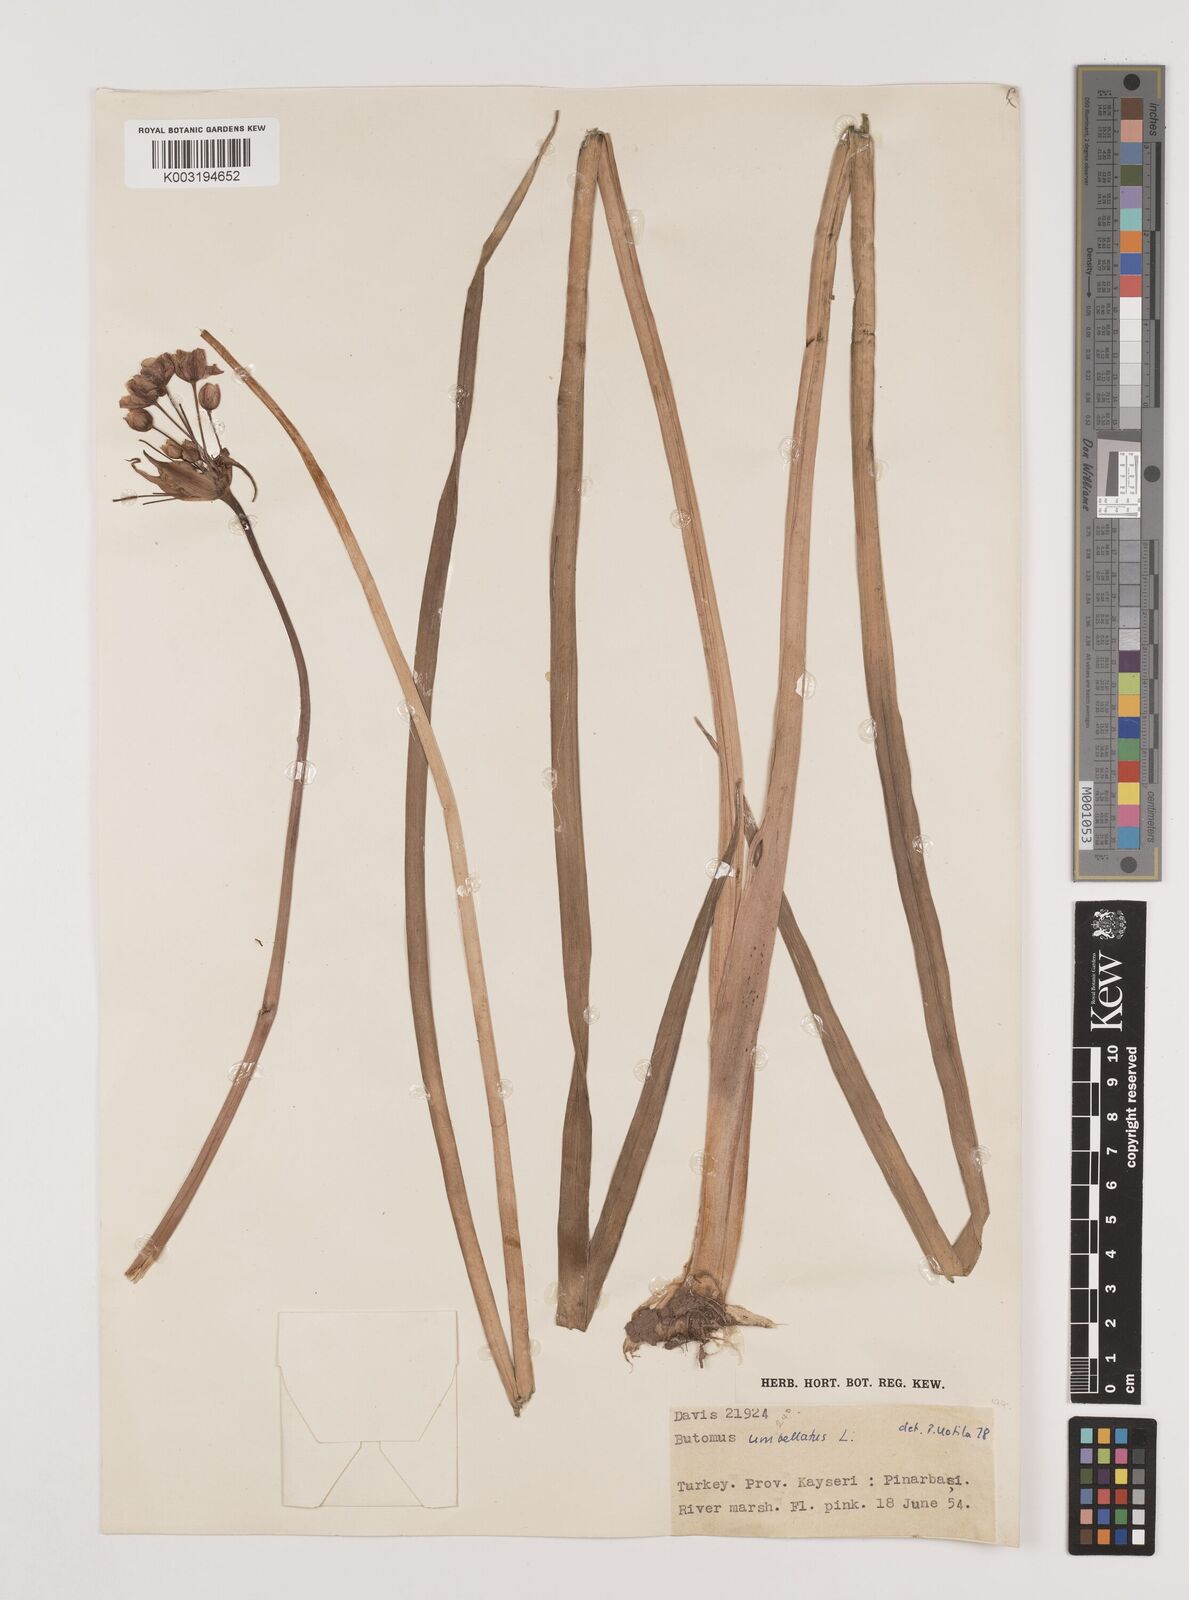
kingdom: Plantae
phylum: Tracheophyta
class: Liliopsida
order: Alismatales
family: Butomaceae
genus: Butomus
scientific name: Butomus
